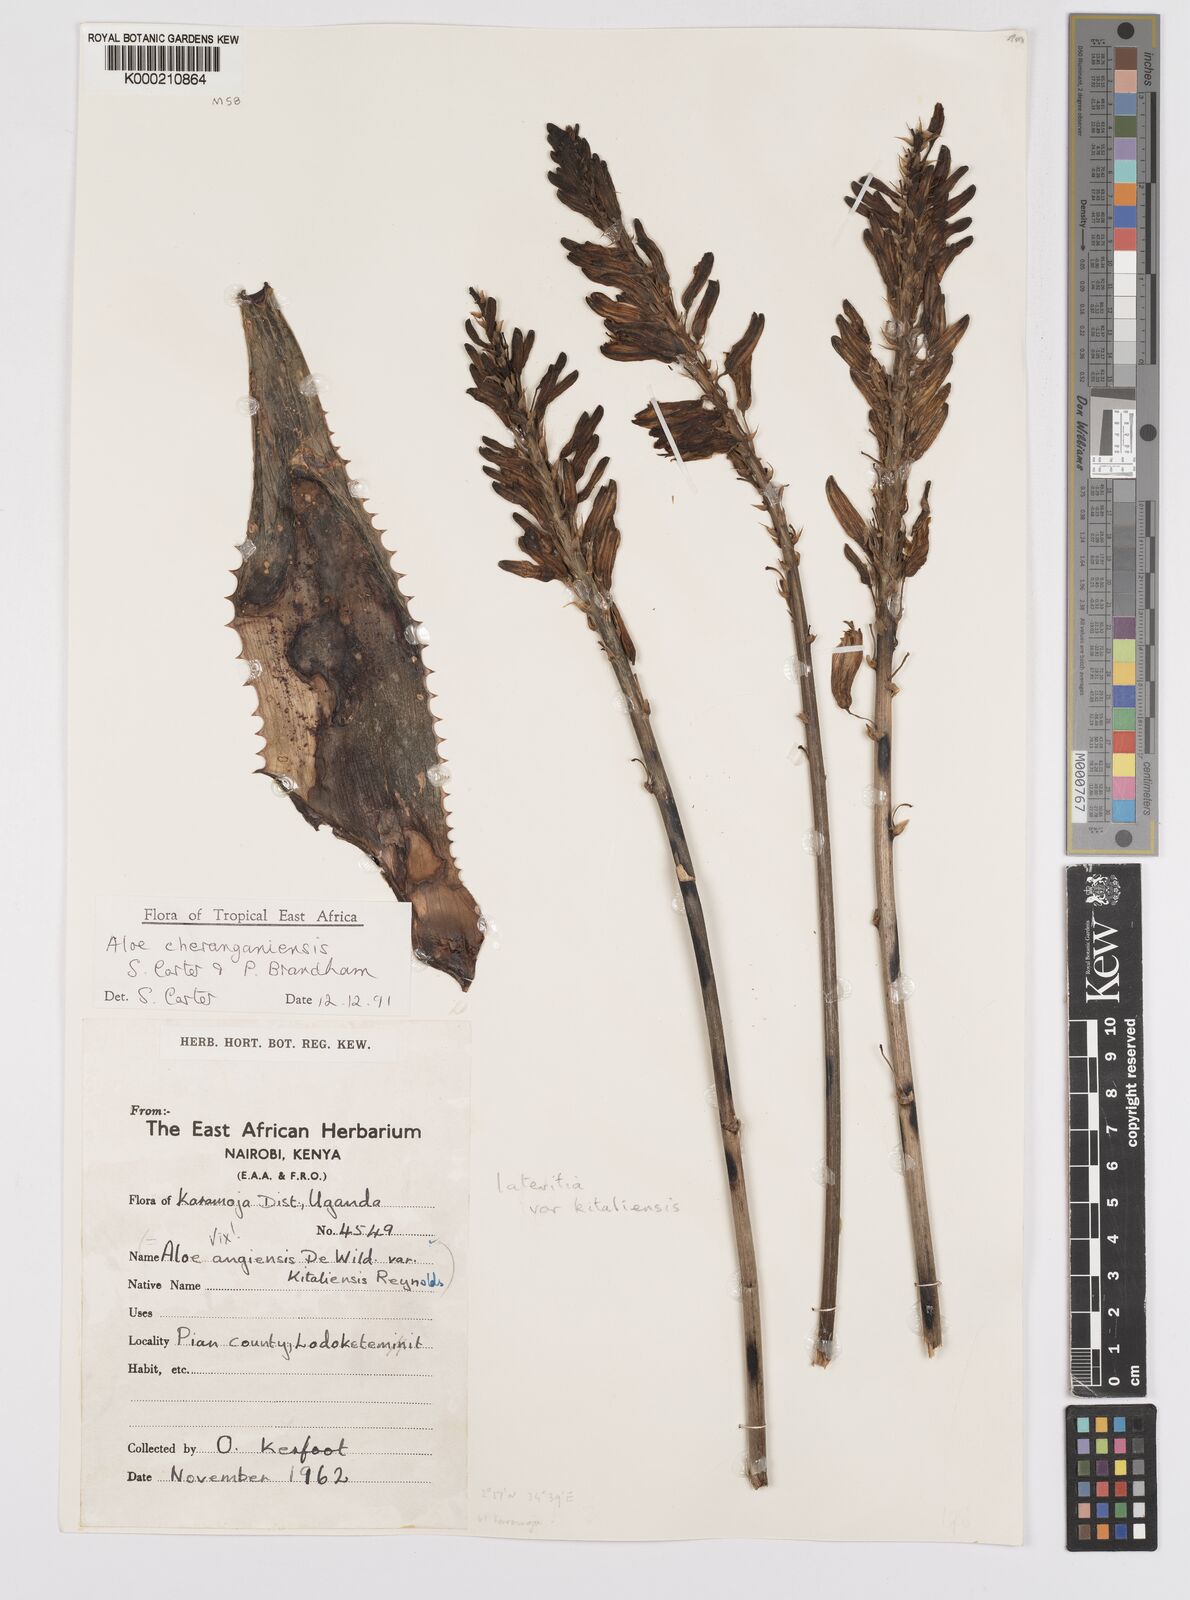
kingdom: Plantae
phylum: Tracheophyta
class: Liliopsida
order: Asparagales
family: Asphodelaceae
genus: Aloe
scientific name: Aloe cheranganiensis
